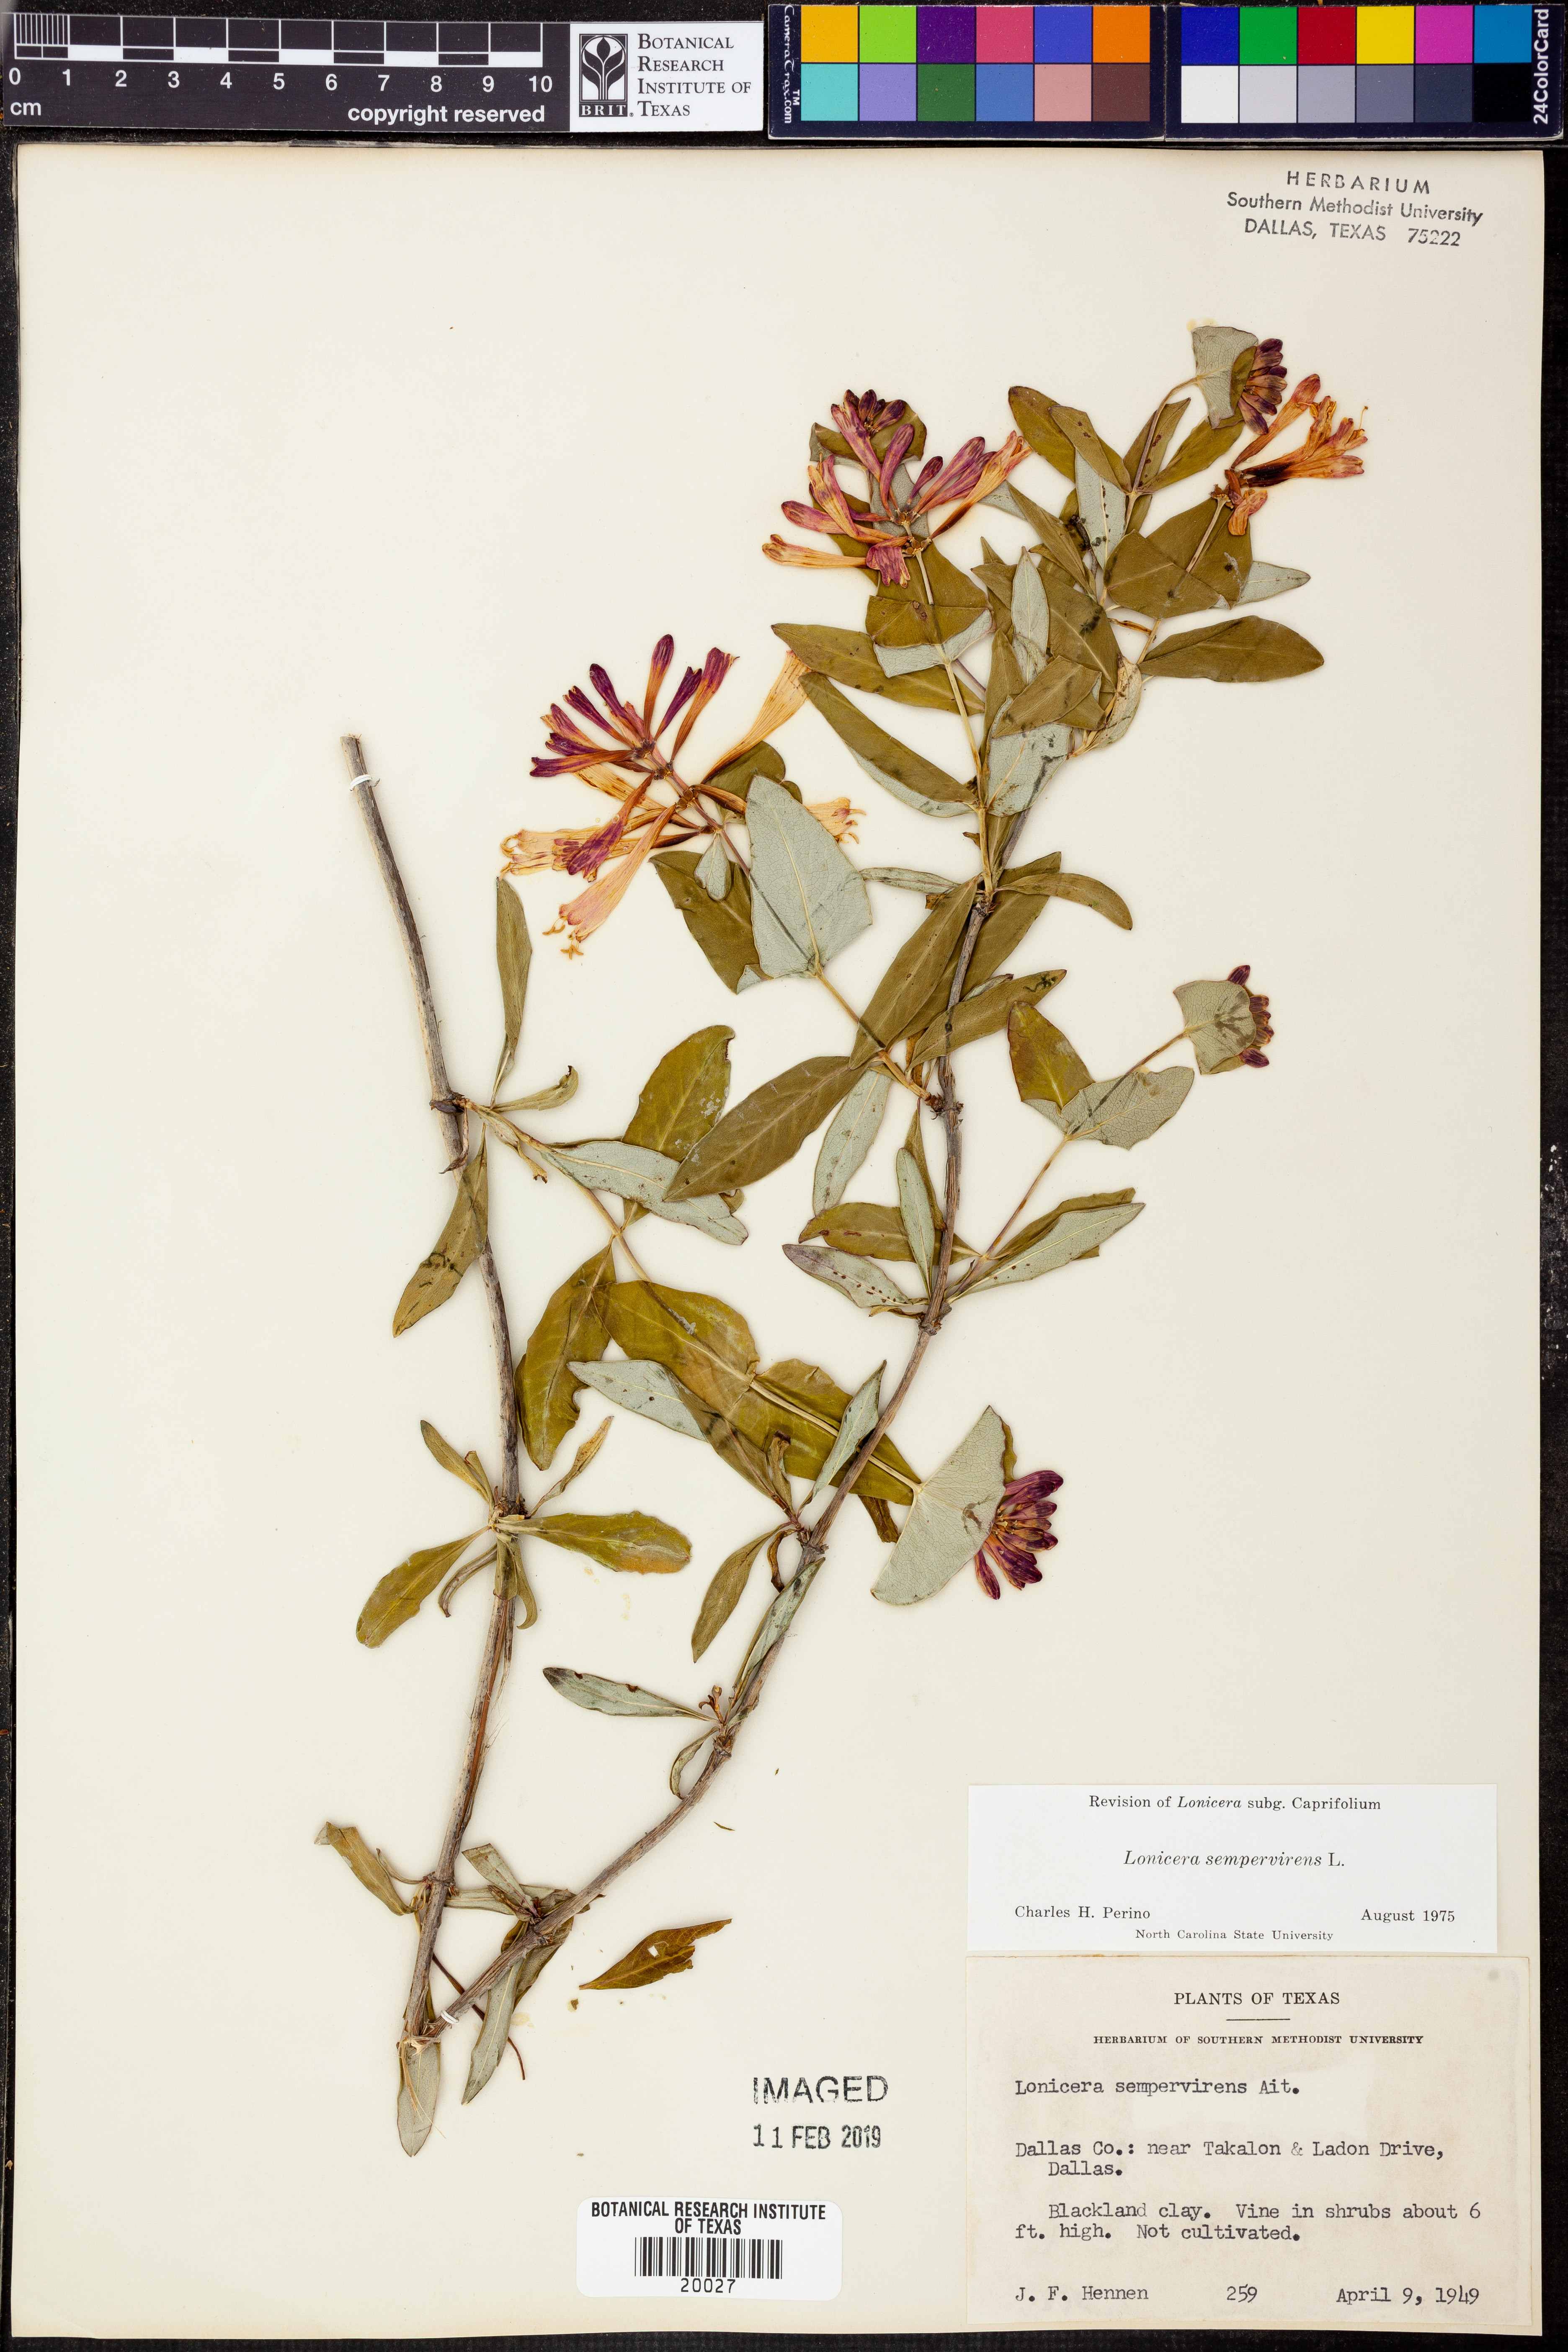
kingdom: Plantae
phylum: Tracheophyta
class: Magnoliopsida
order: Dipsacales
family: Caprifoliaceae
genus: Lonicera
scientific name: Lonicera sempervirens
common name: Coral honeysuckle
